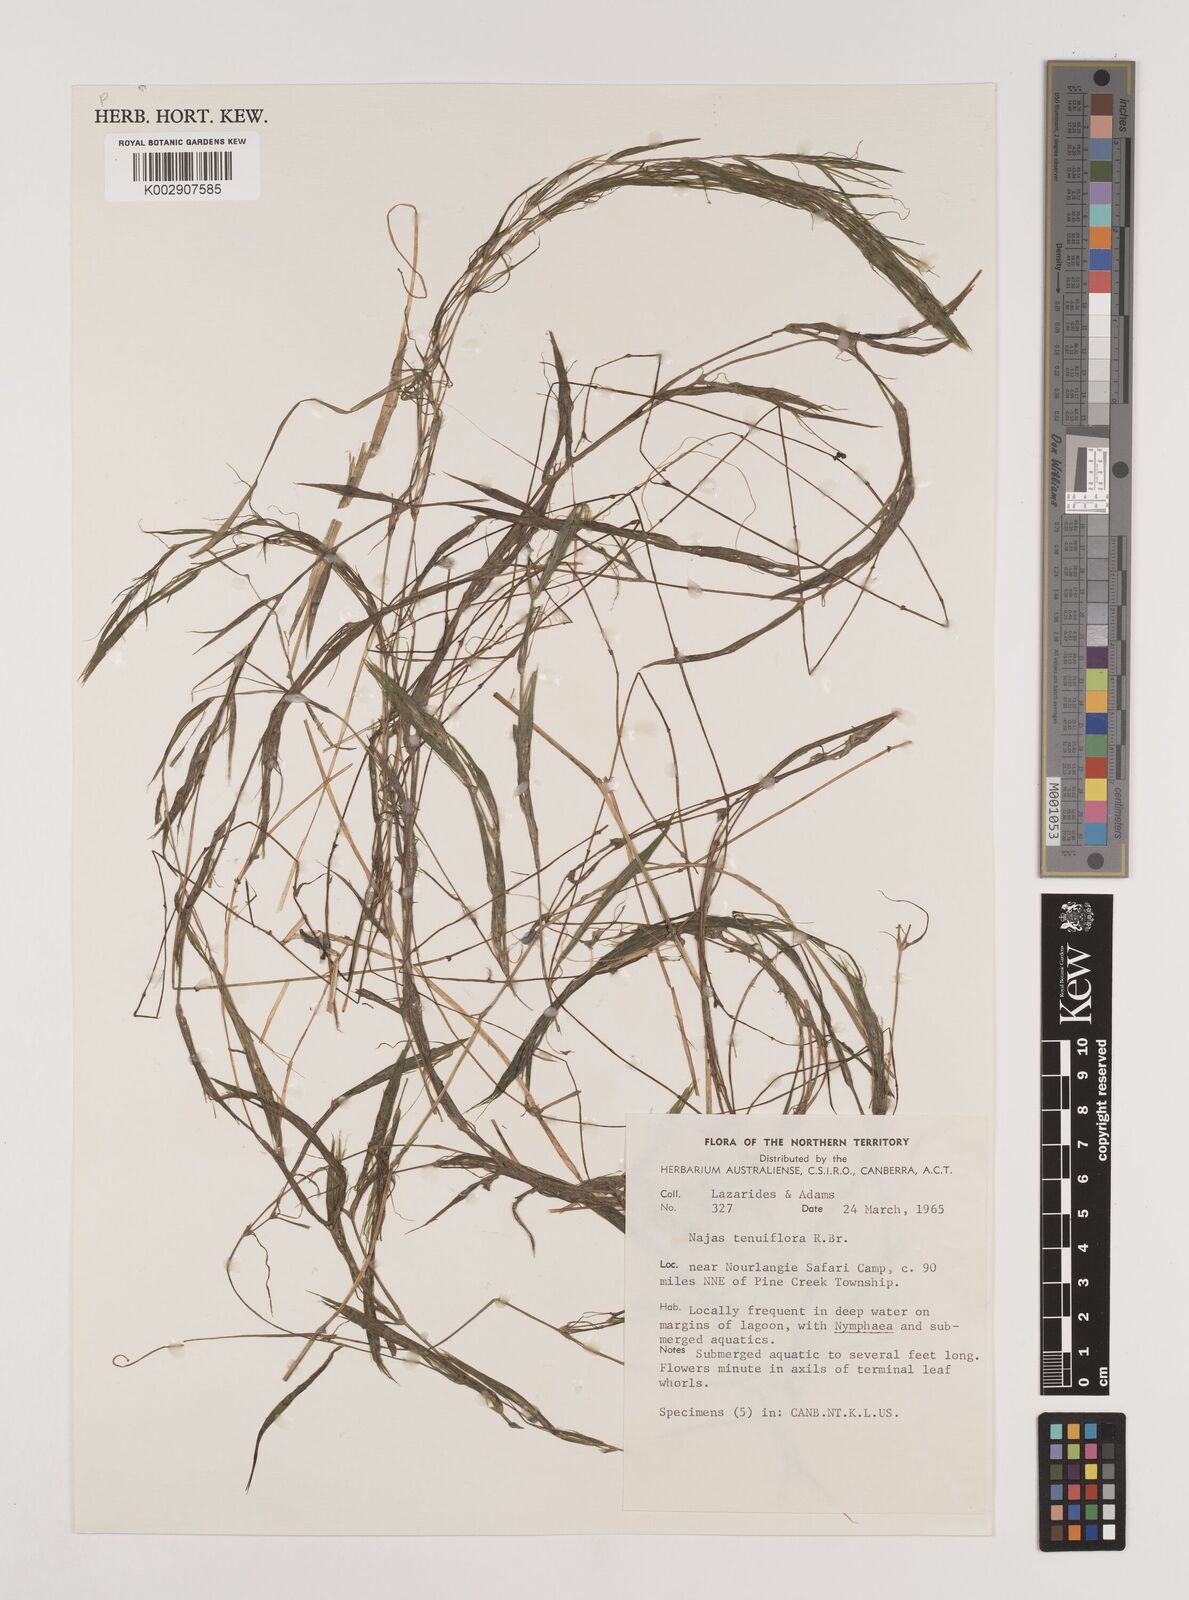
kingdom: Plantae
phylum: Tracheophyta
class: Liliopsida
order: Alismatales
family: Hydrocharitaceae
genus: Najas
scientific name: Najas tenuifolia
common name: Thin-leaved naiad
